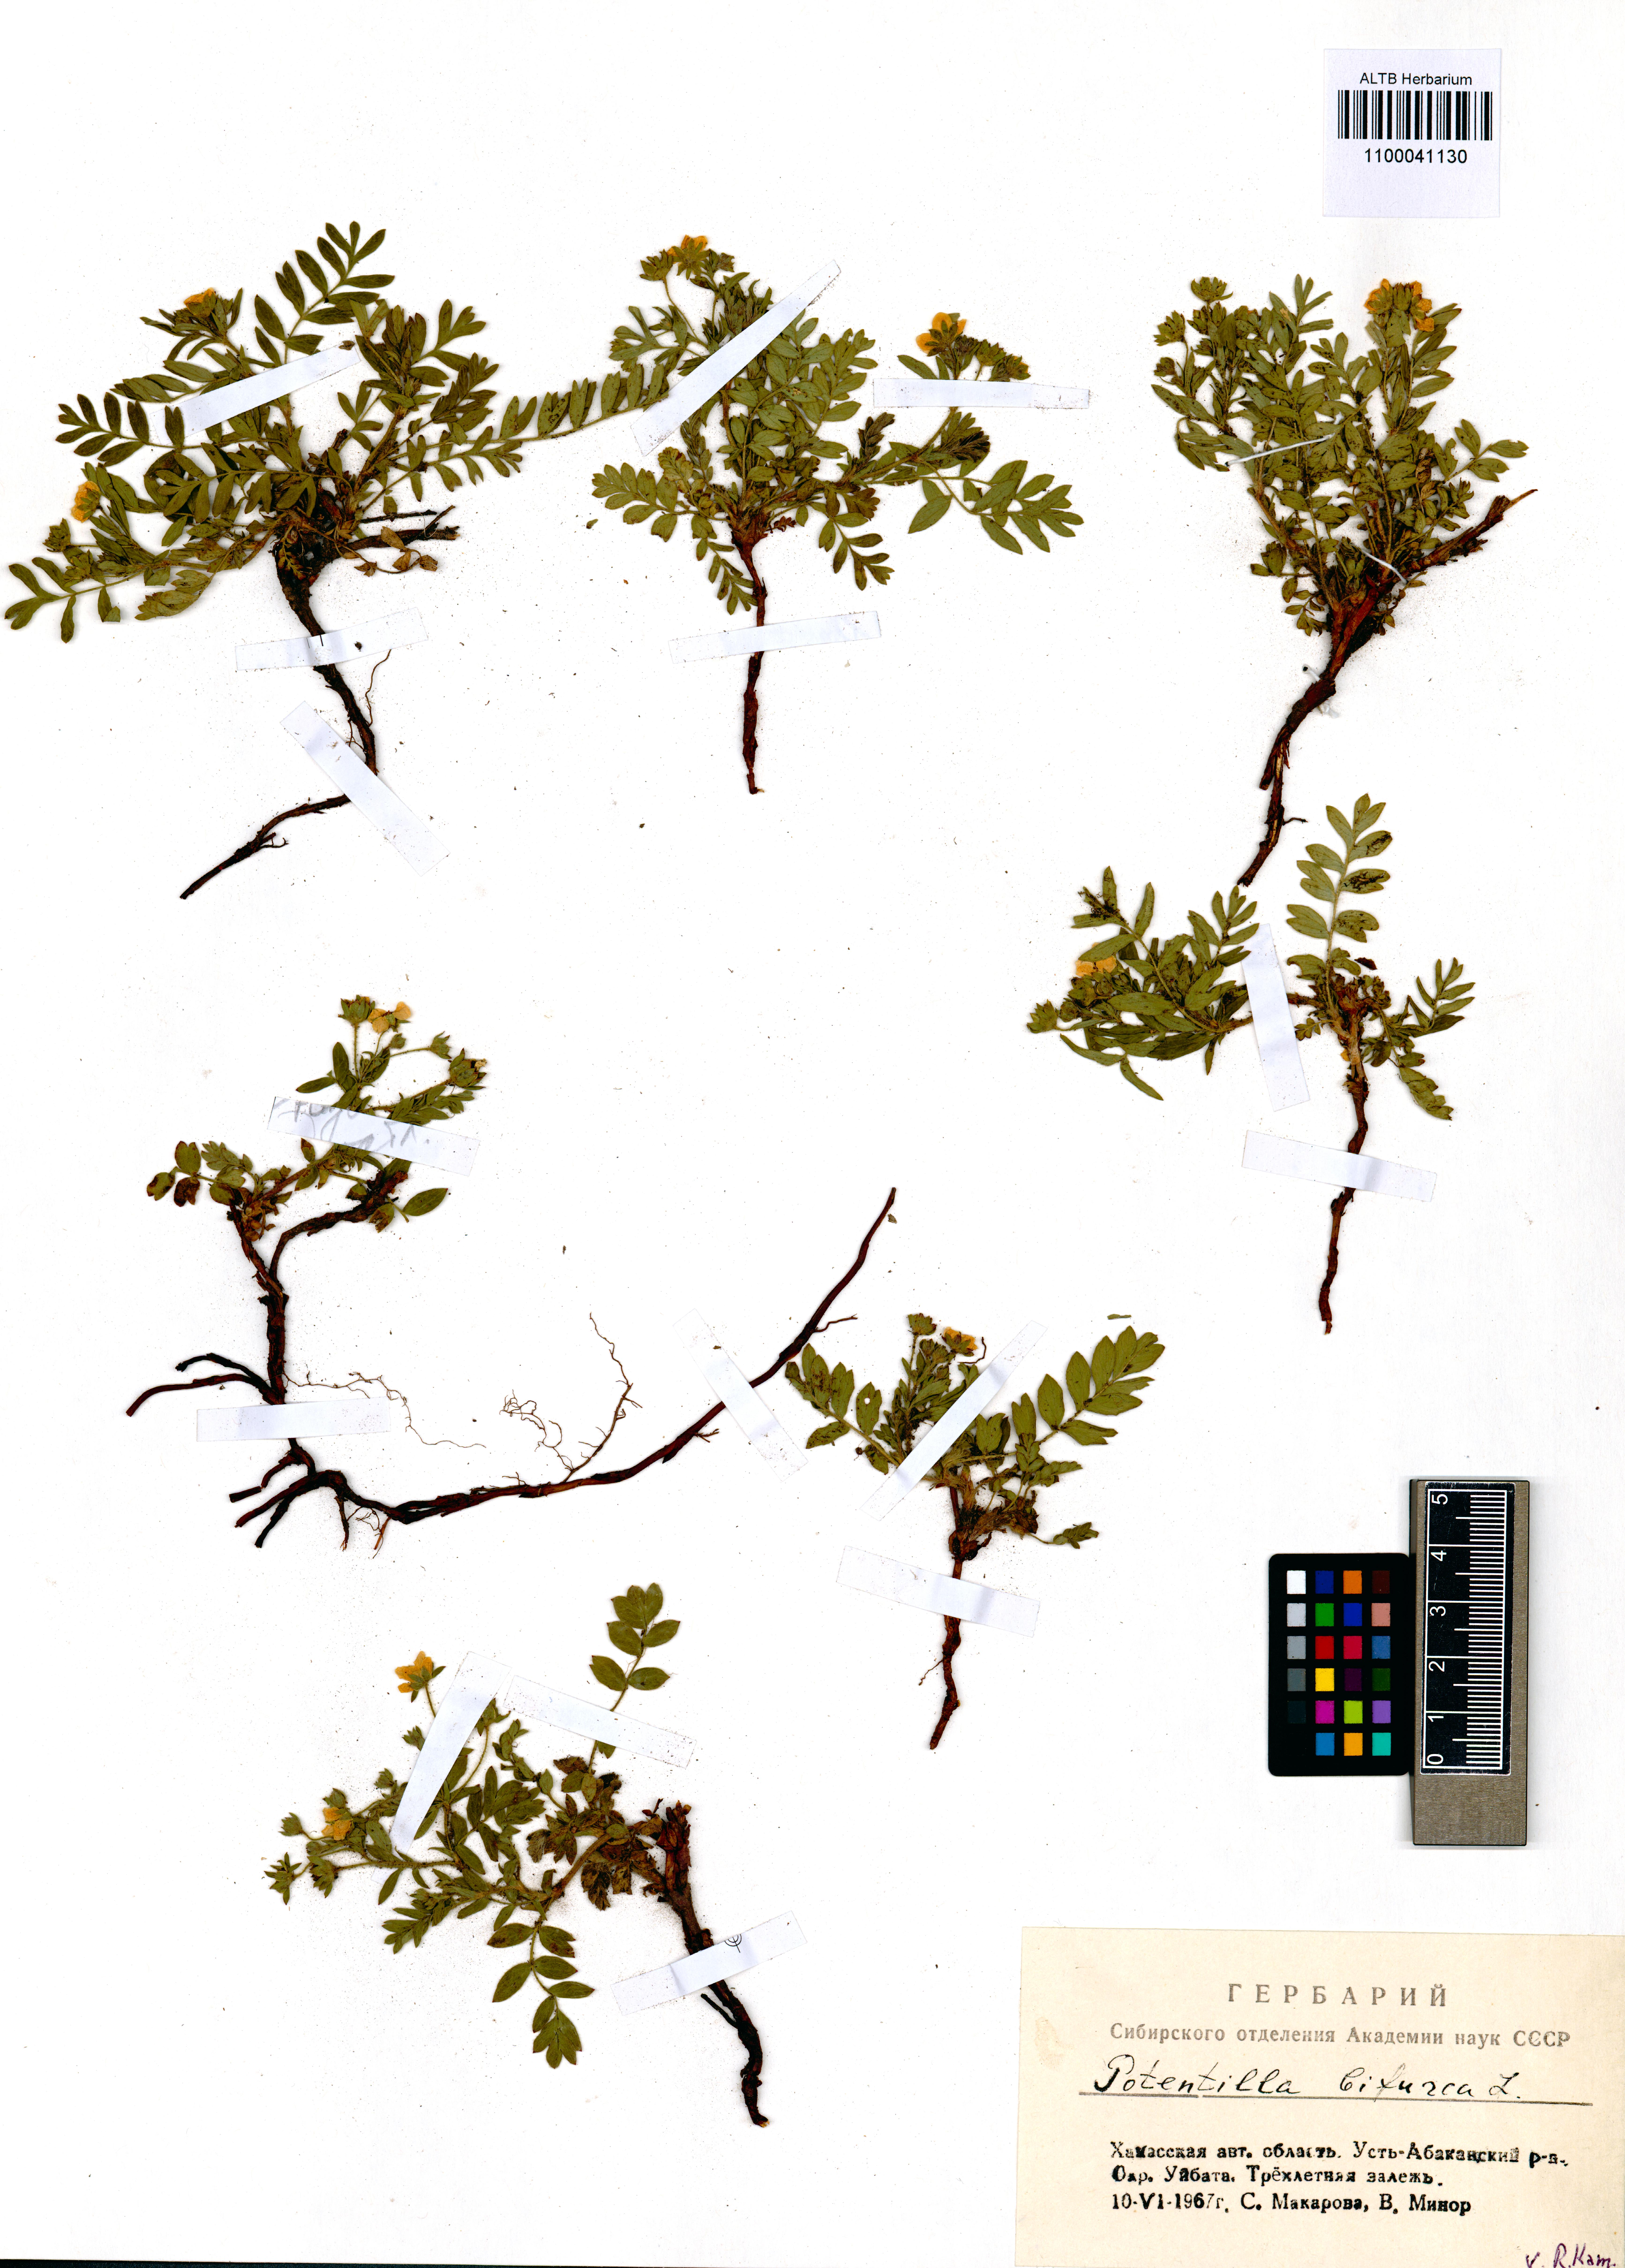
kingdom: Plantae
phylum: Tracheophyta
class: Magnoliopsida
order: Rosales
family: Rosaceae
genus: Sibbaldianthe
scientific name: Sibbaldianthe bifurca
